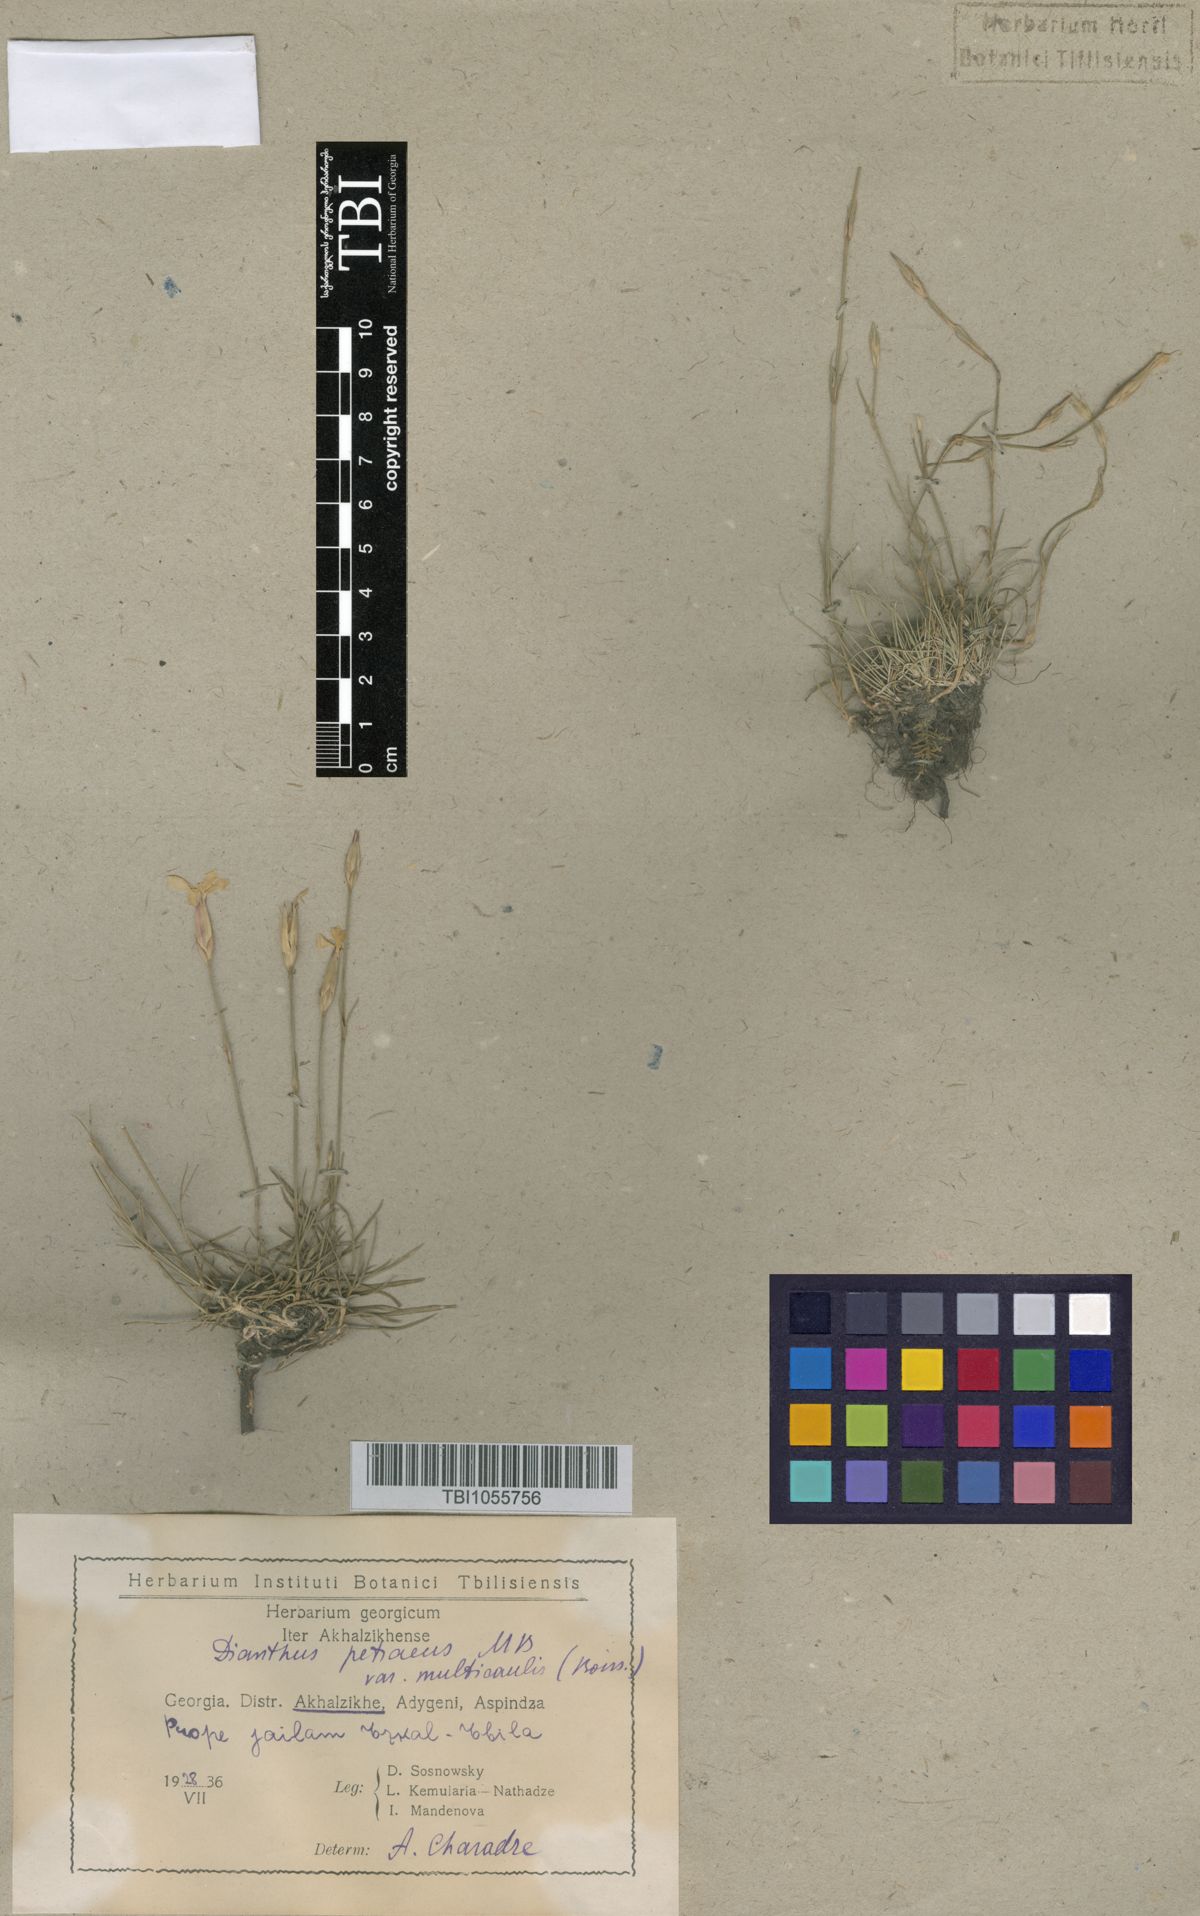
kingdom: Plantae
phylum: Tracheophyta
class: Magnoliopsida
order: Caryophyllales
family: Caryophyllaceae
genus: Dianthus
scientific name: Dianthus cretaceus
